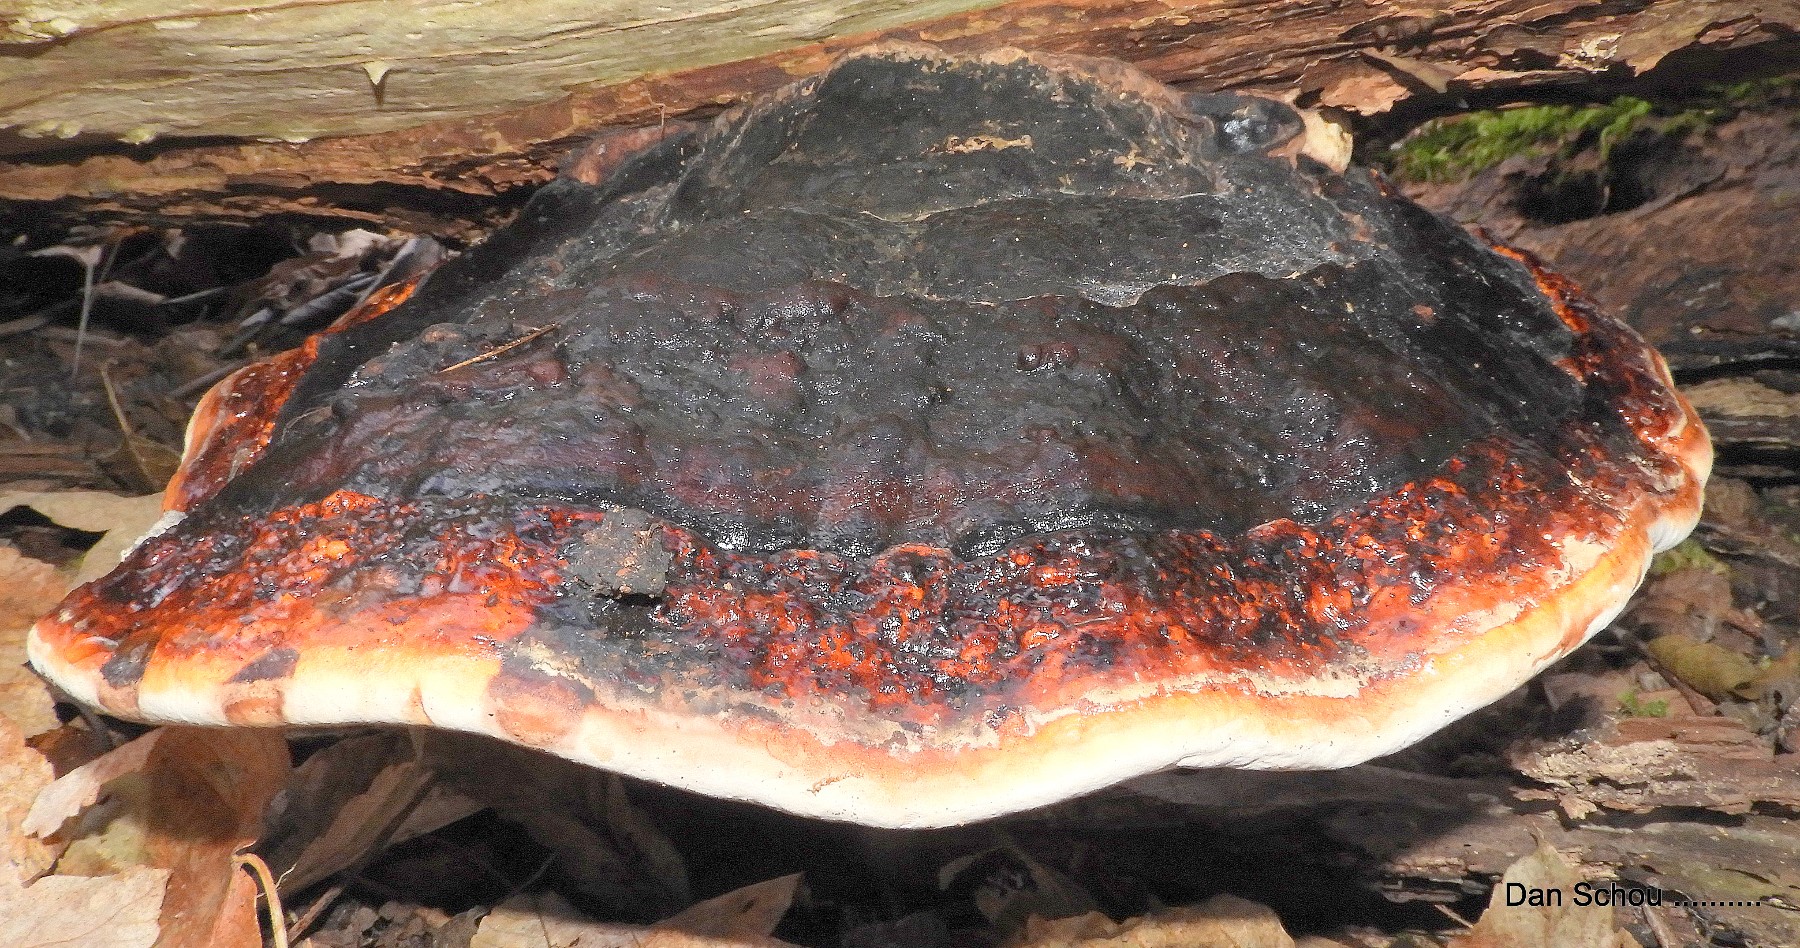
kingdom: Fungi
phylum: Basidiomycota
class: Agaricomycetes
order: Polyporales
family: Fomitopsidaceae
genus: Fomitopsis
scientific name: Fomitopsis pinicola
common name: randbæltet hovporesvamp
